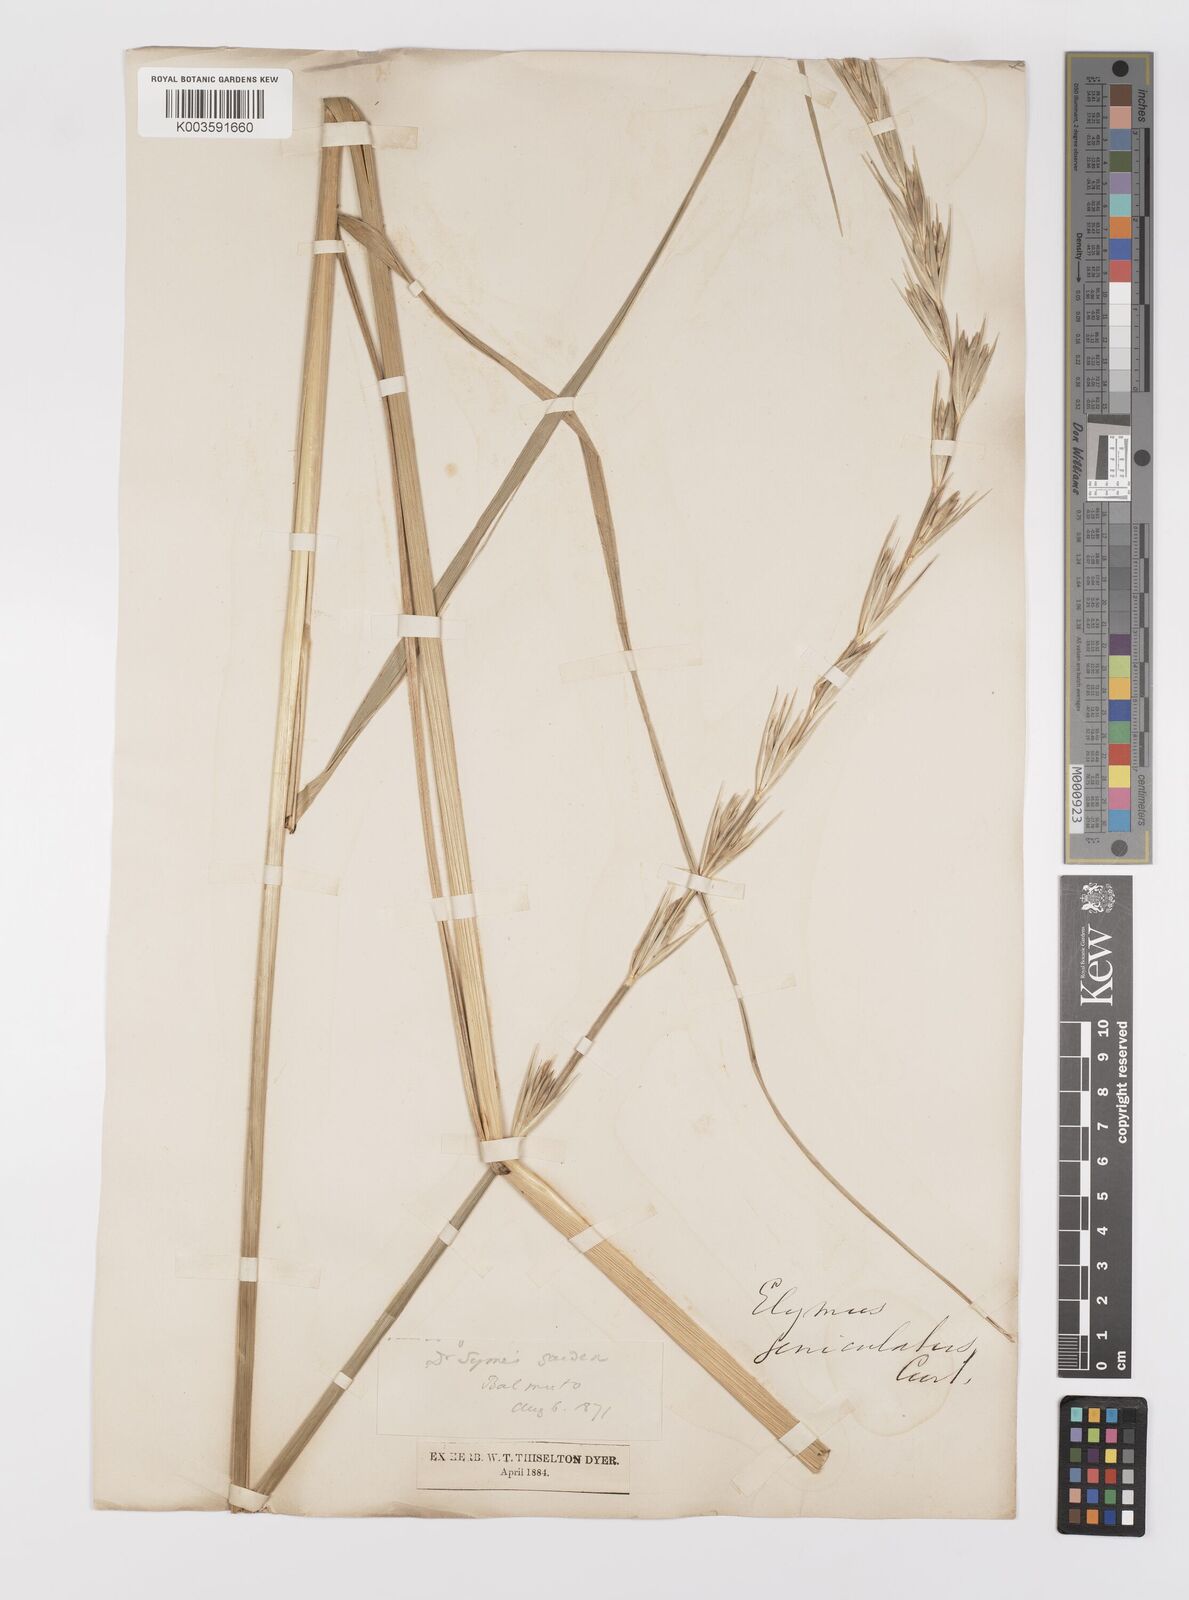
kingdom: Plantae
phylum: Tracheophyta
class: Liliopsida
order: Poales
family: Poaceae
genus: Leymus
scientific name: Leymus arenarius
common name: Lyme-grass
